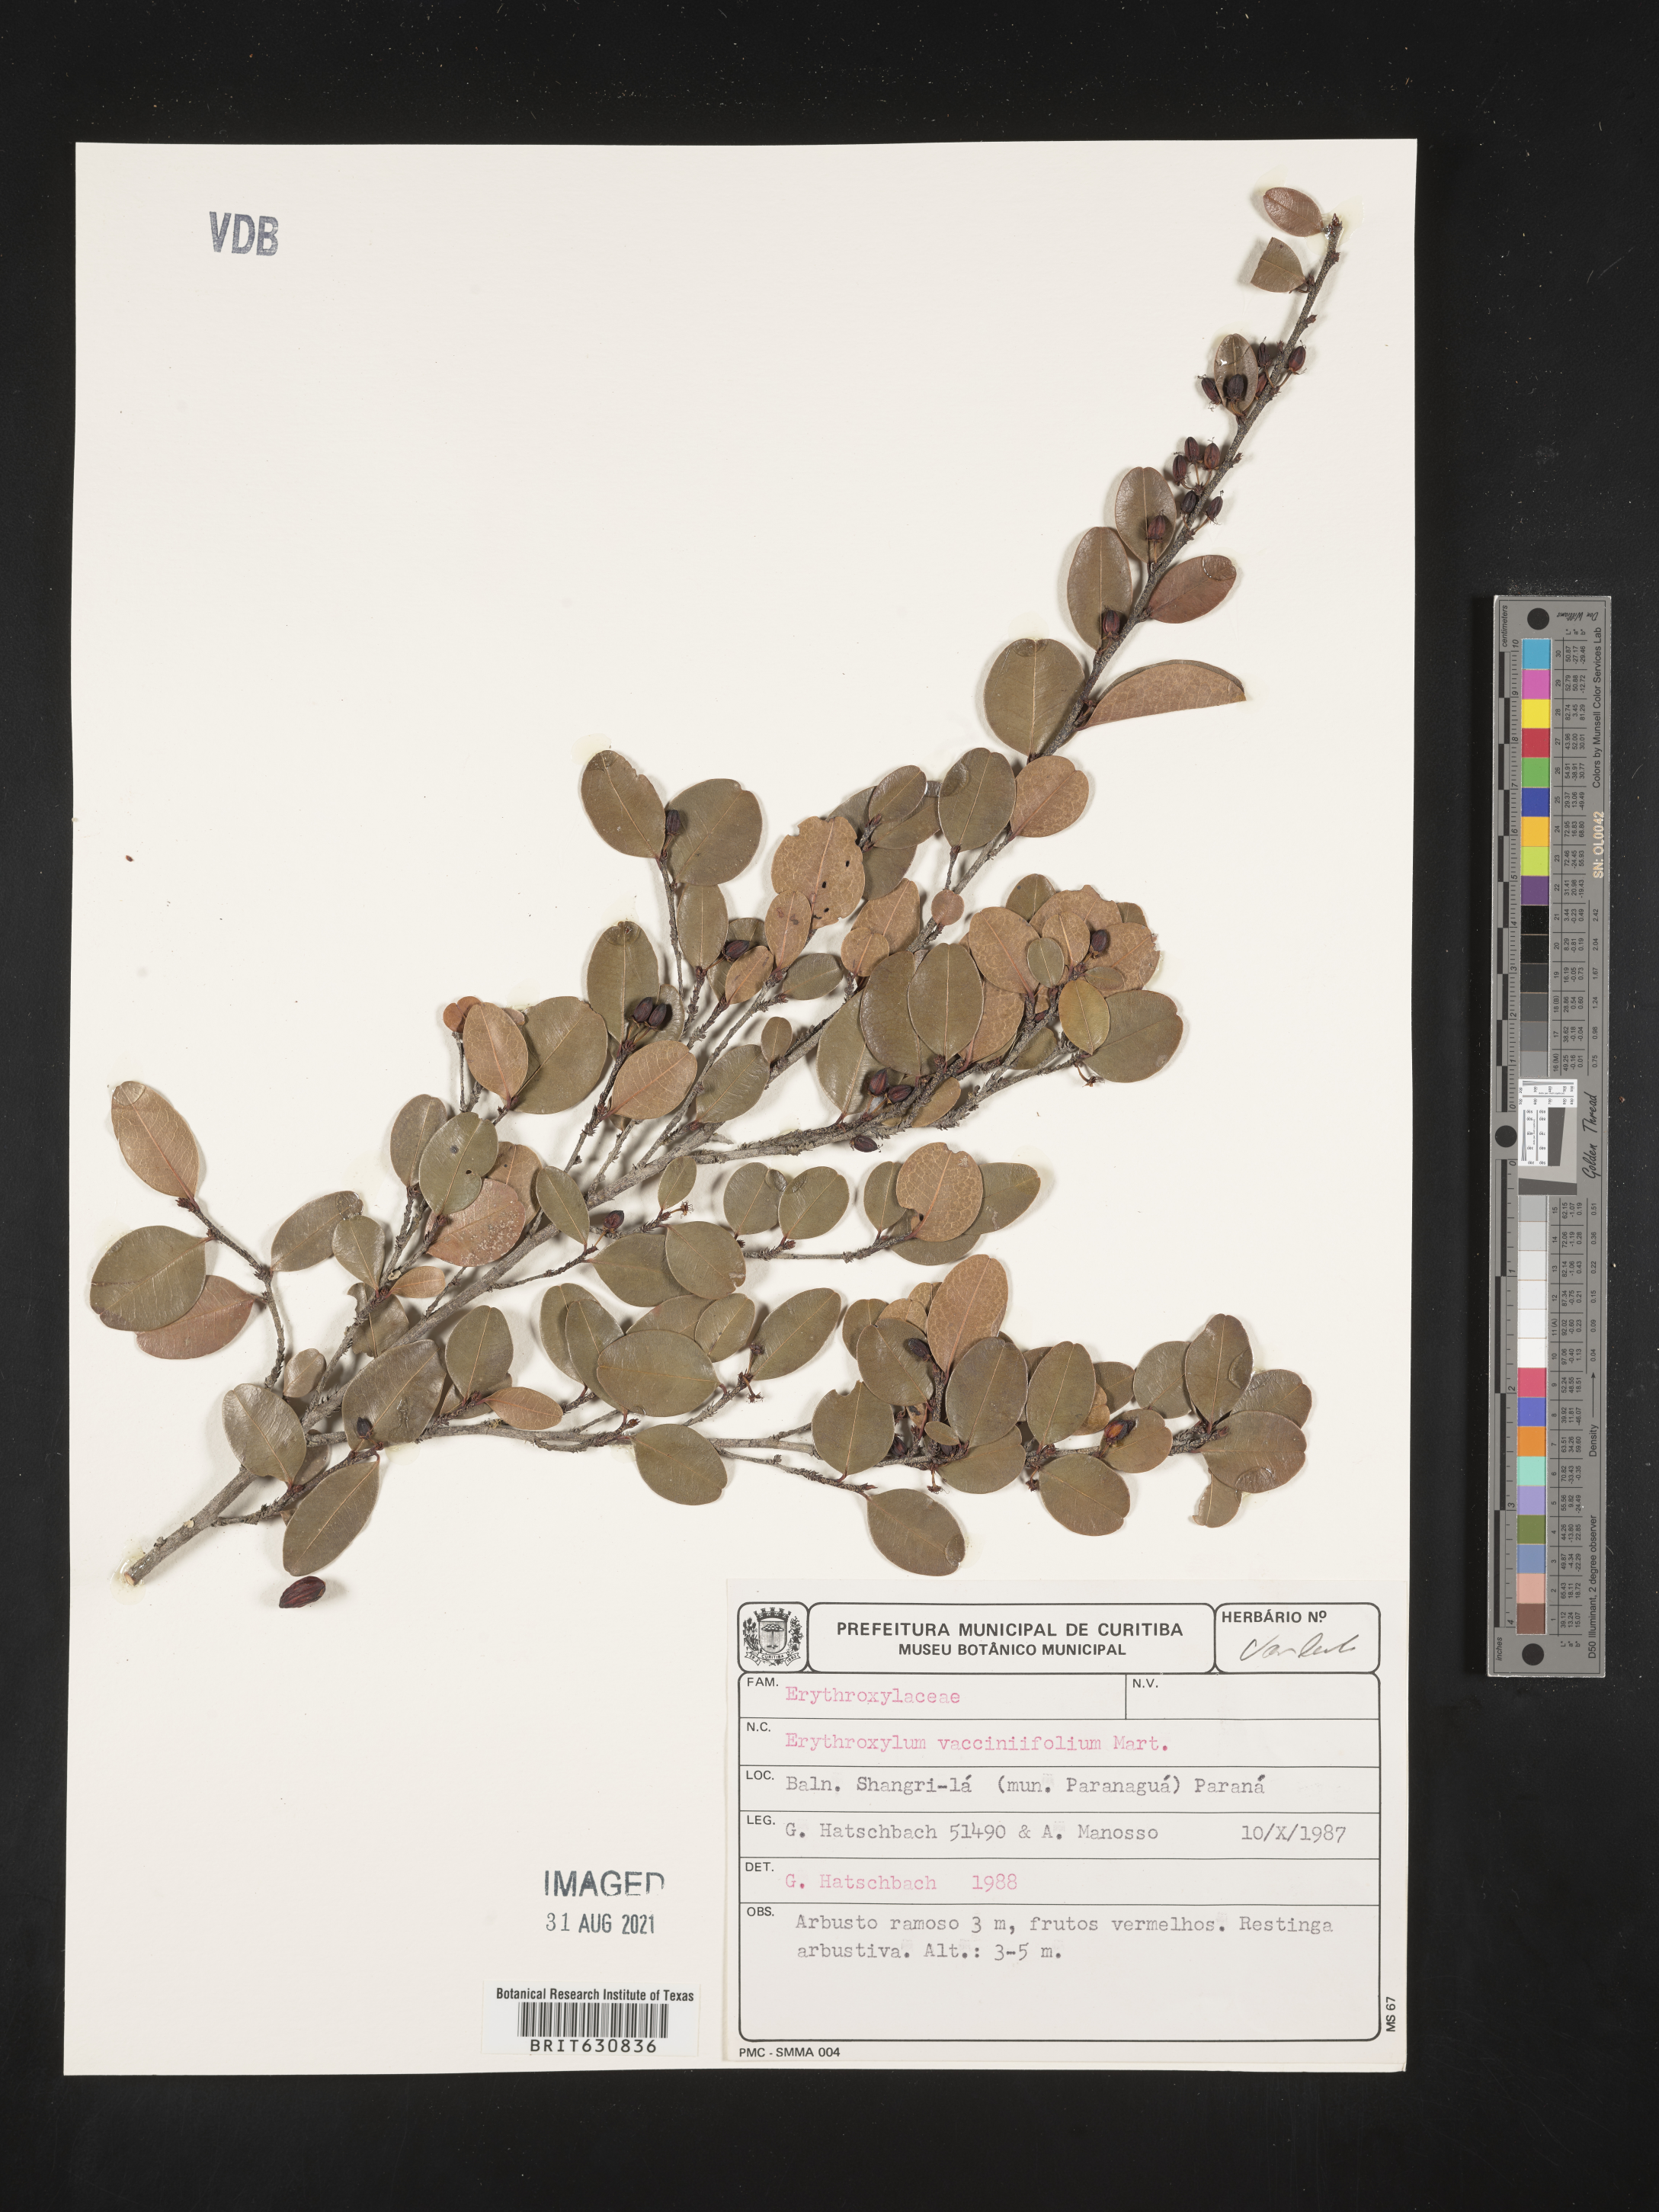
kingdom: Plantae
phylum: Tracheophyta
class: Magnoliopsida
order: Malpighiales
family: Erythroxylaceae
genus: Erythroxylum
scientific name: Erythroxylum
